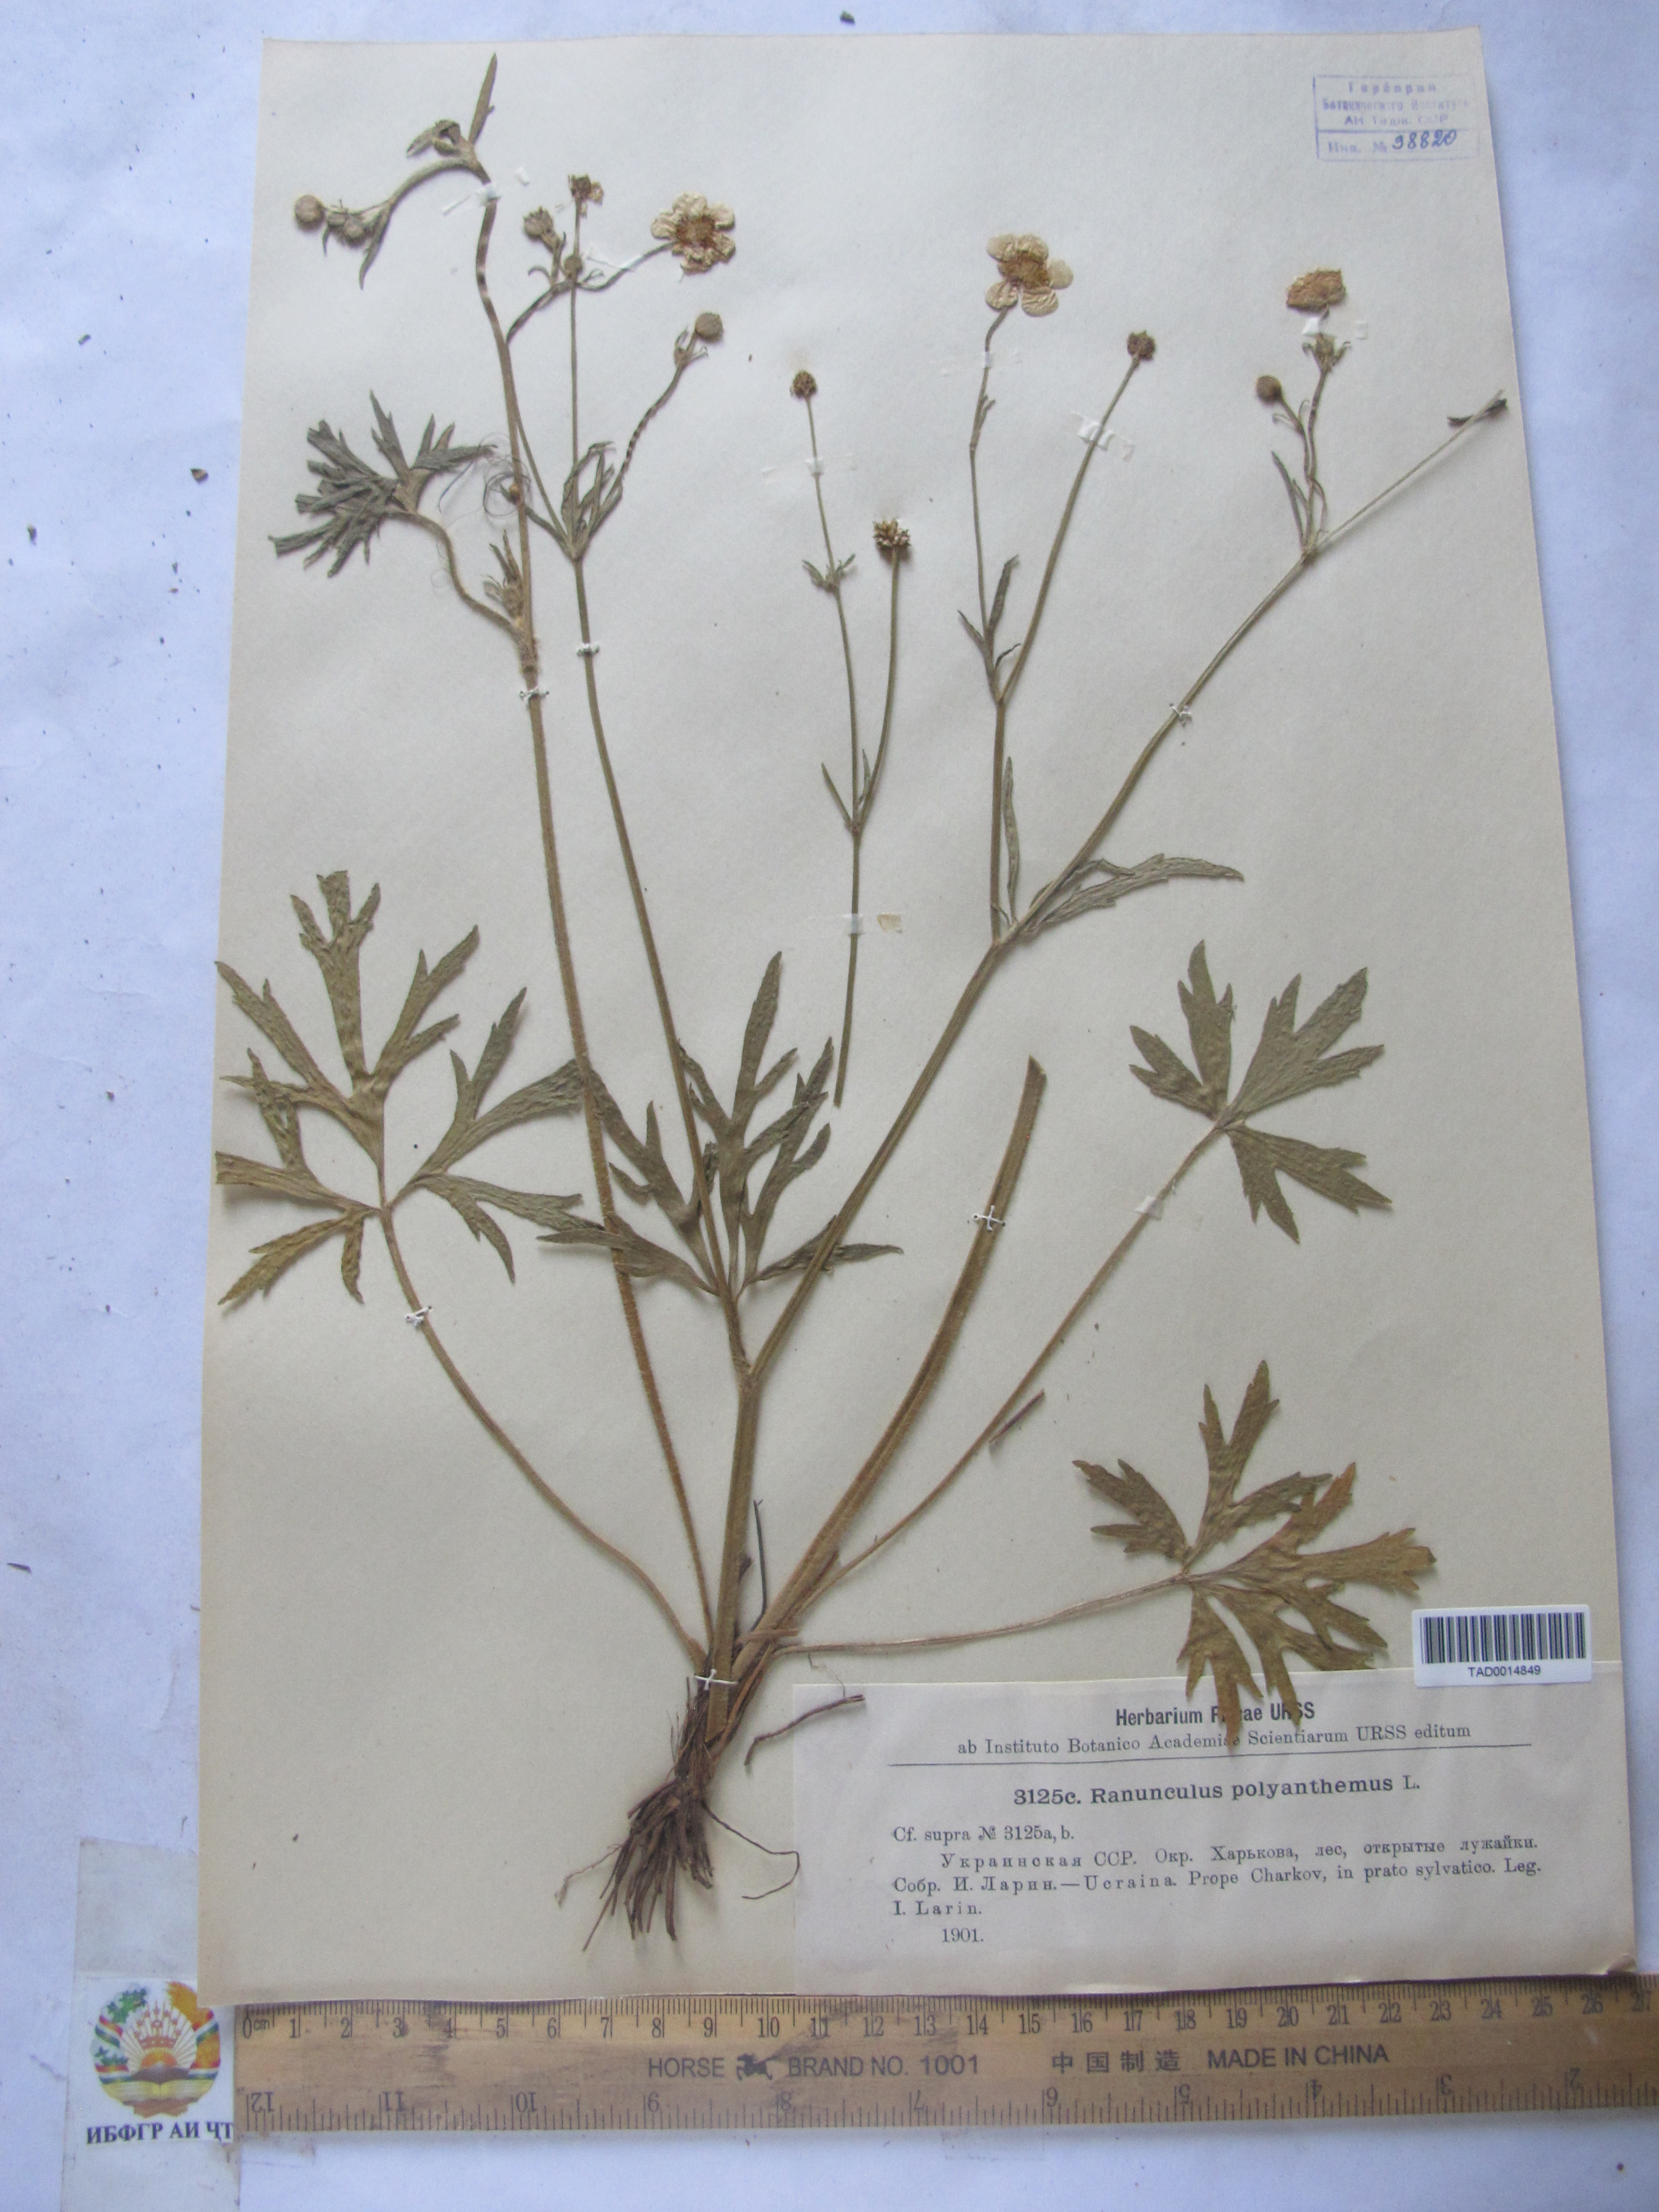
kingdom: Plantae
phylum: Tracheophyta
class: Magnoliopsida
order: Ranunculales
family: Ranunculaceae
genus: Ranunculus
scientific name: Ranunculus polyanthemos
